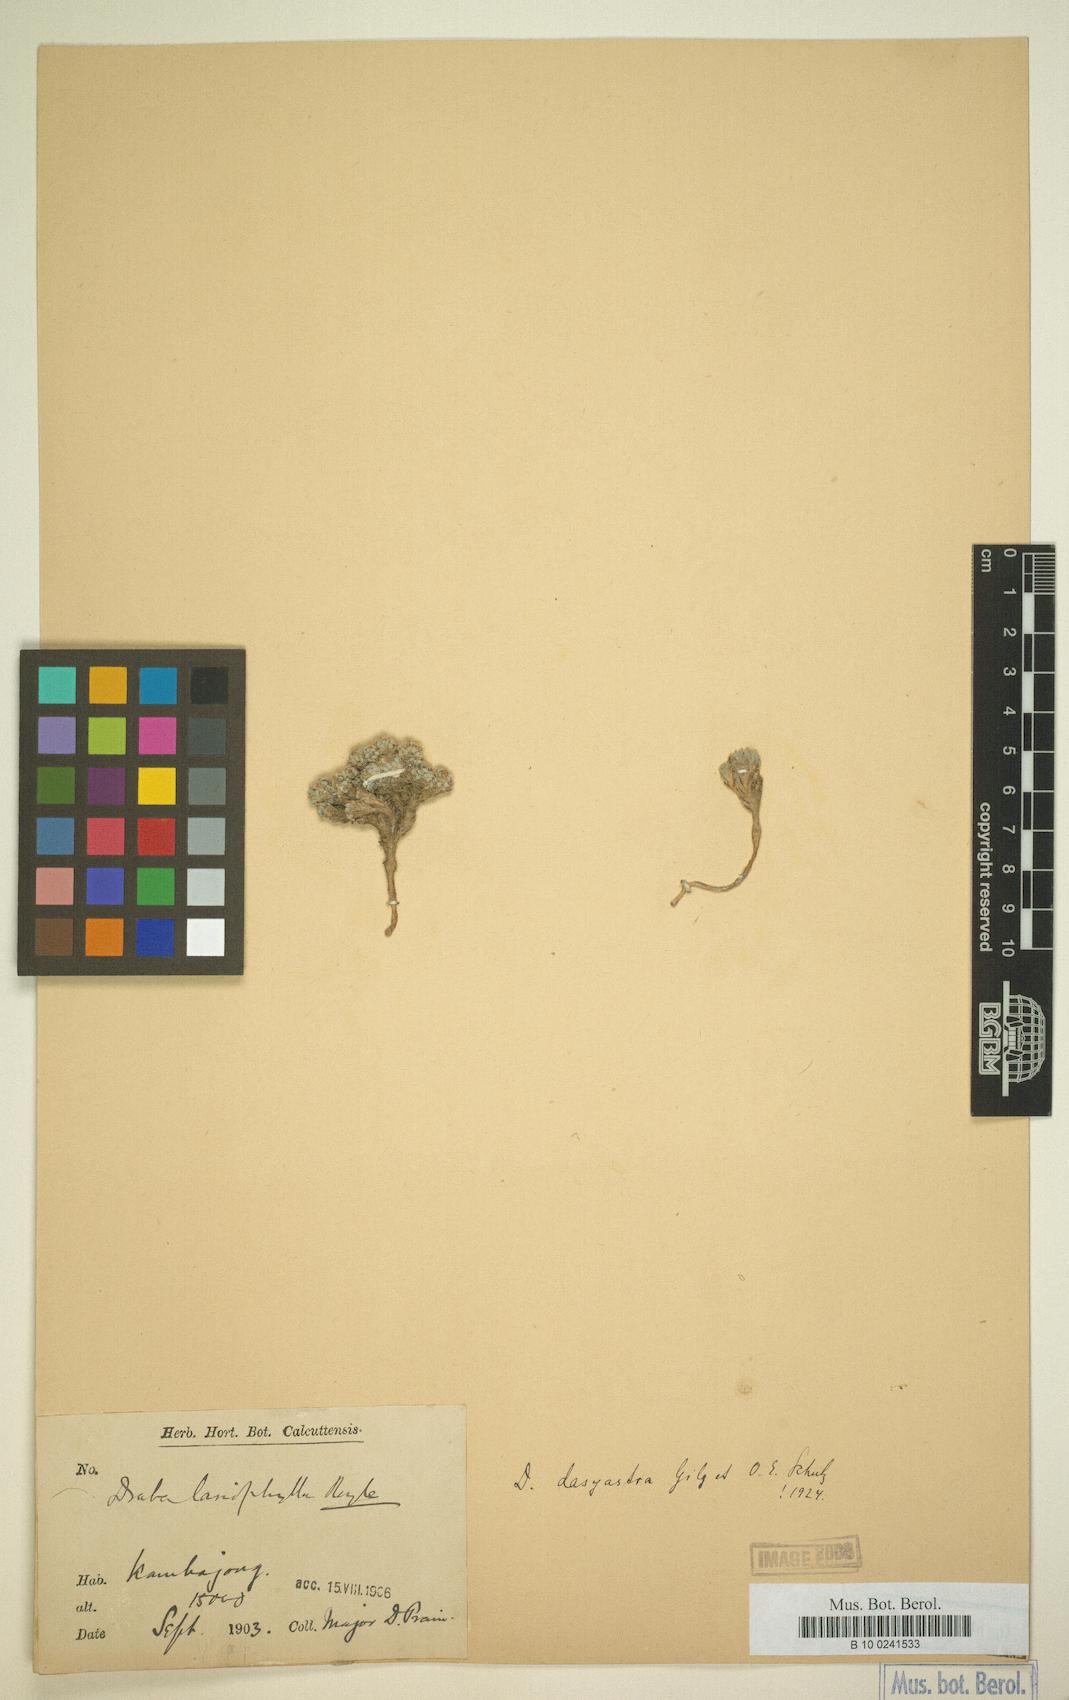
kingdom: Plantae
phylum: Tracheophyta
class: Magnoliopsida
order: Brassicales
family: Brassicaceae
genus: Draba
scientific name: Draba winterbottomii
